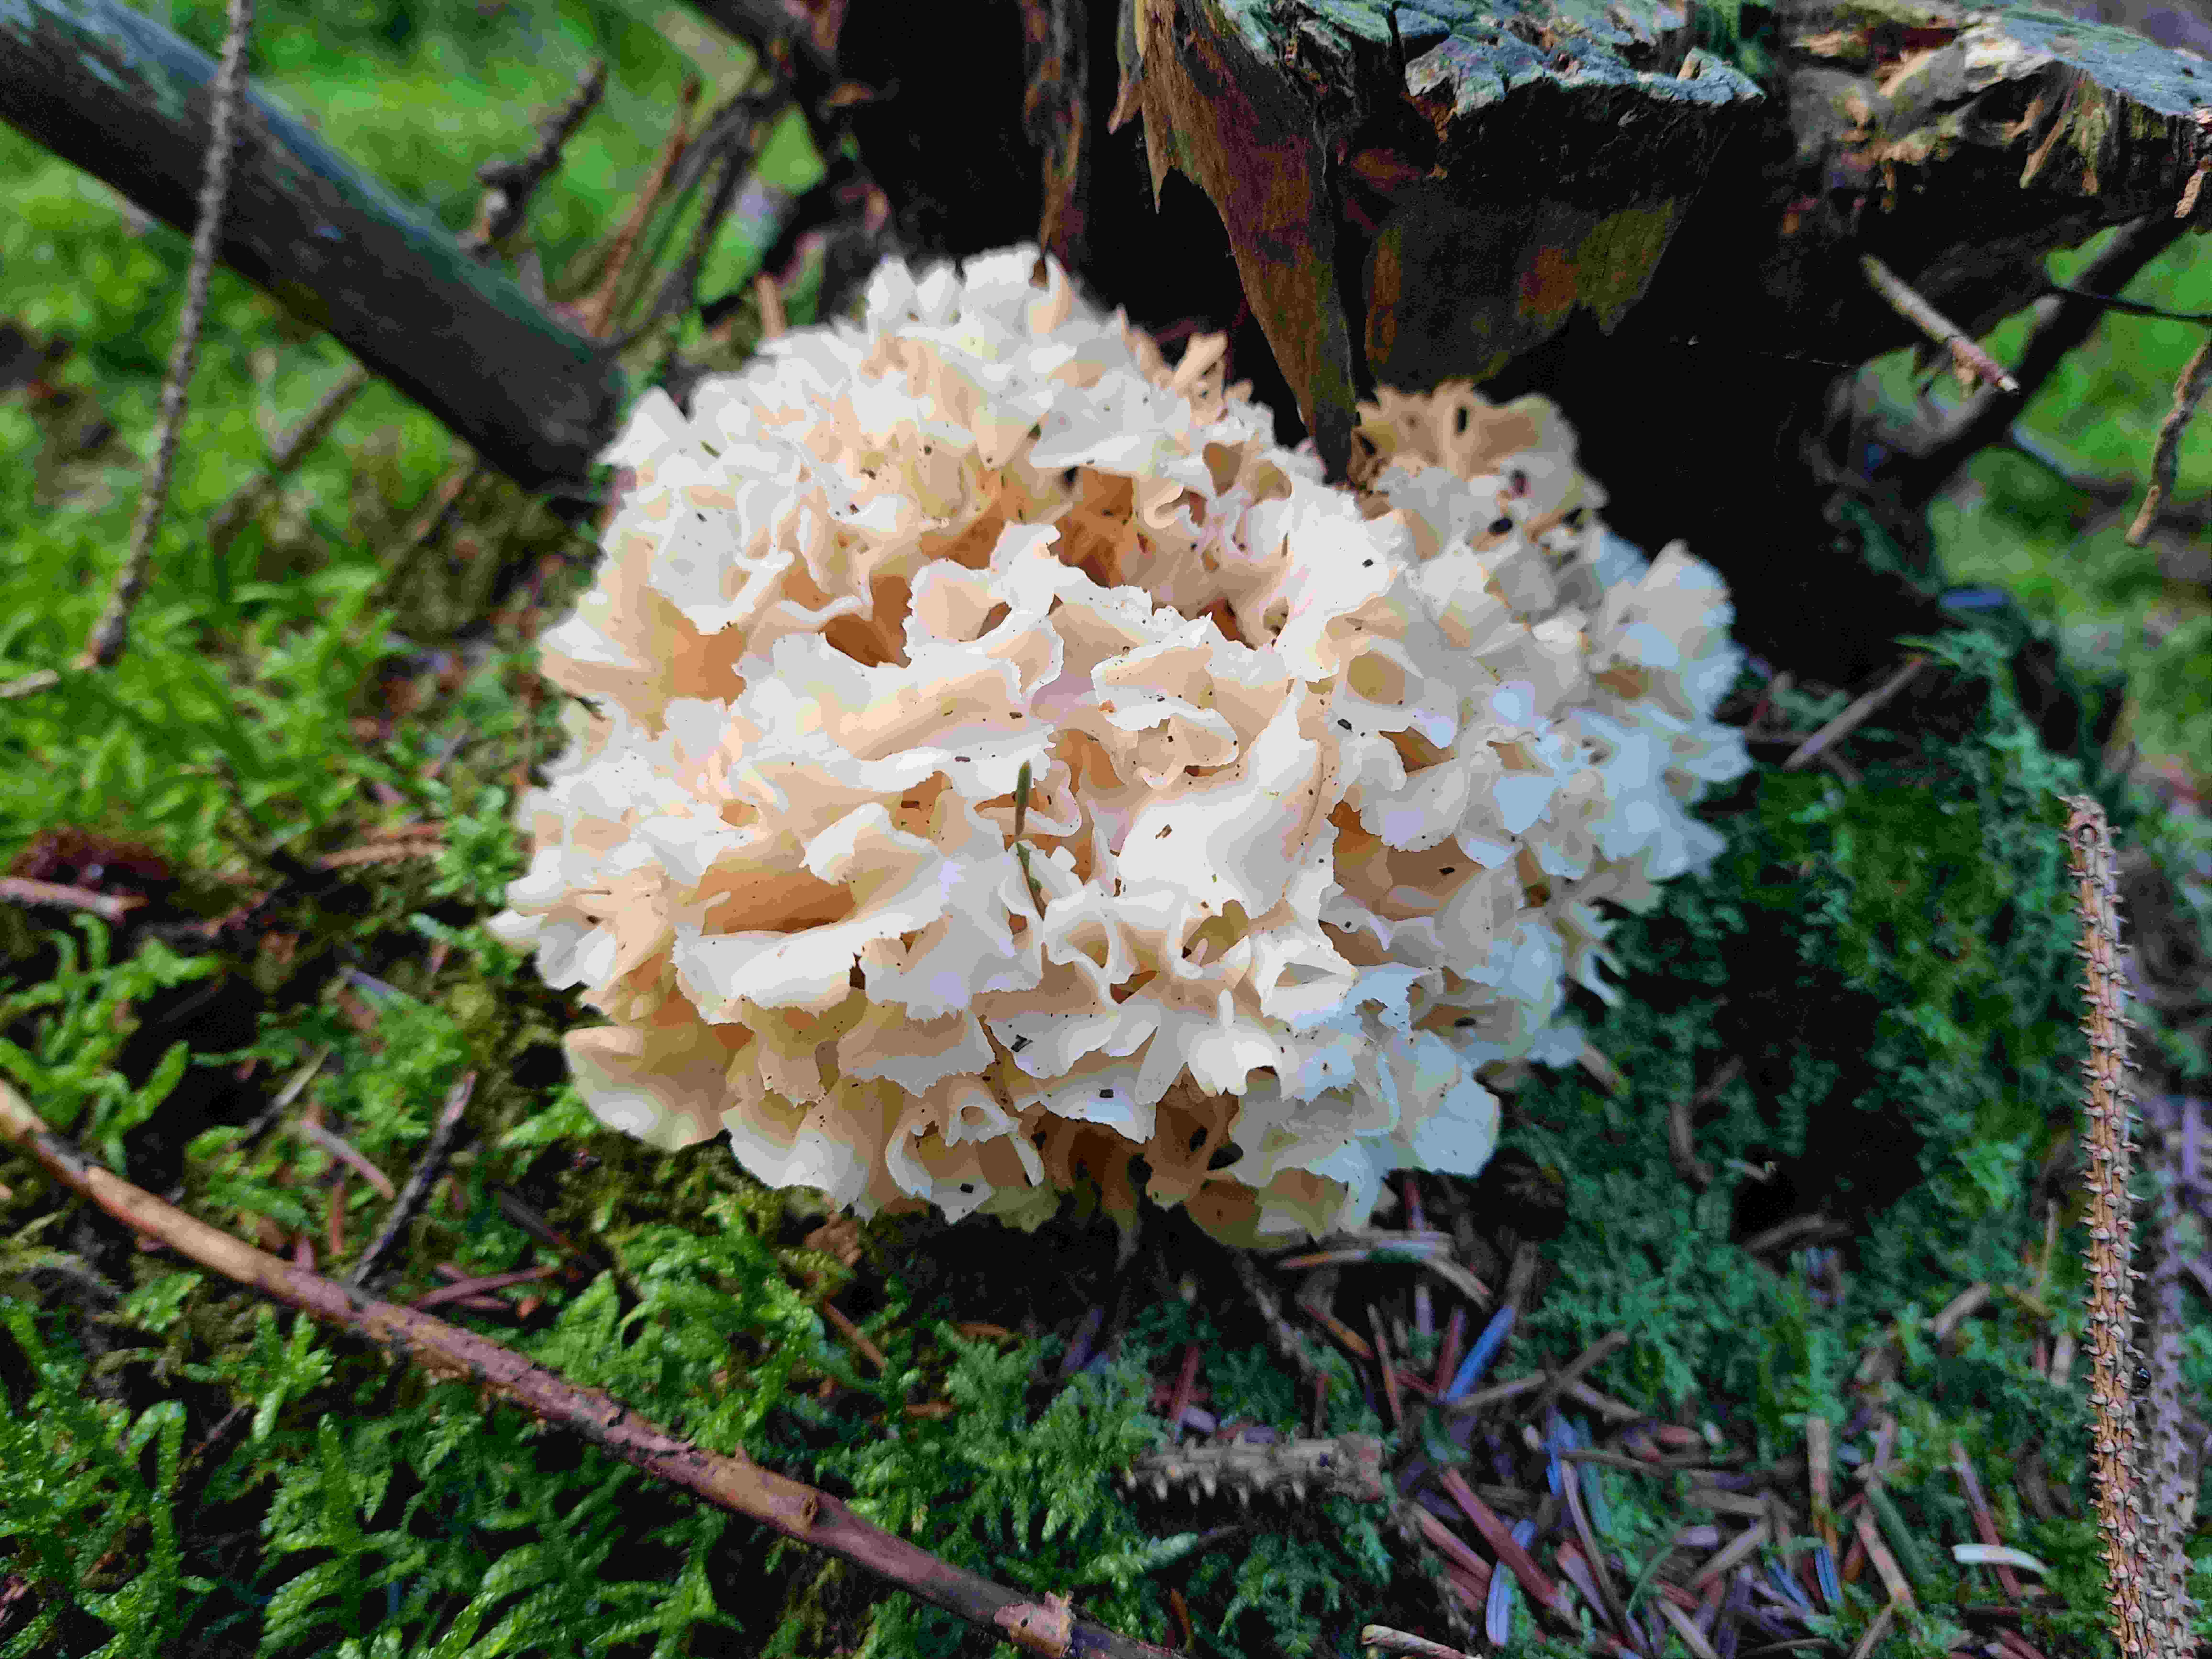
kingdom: Fungi
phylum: Basidiomycota
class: Agaricomycetes
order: Polyporales
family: Sparassidaceae
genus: Sparassis
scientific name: Sparassis crispa
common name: kruset blomkålssvamp
